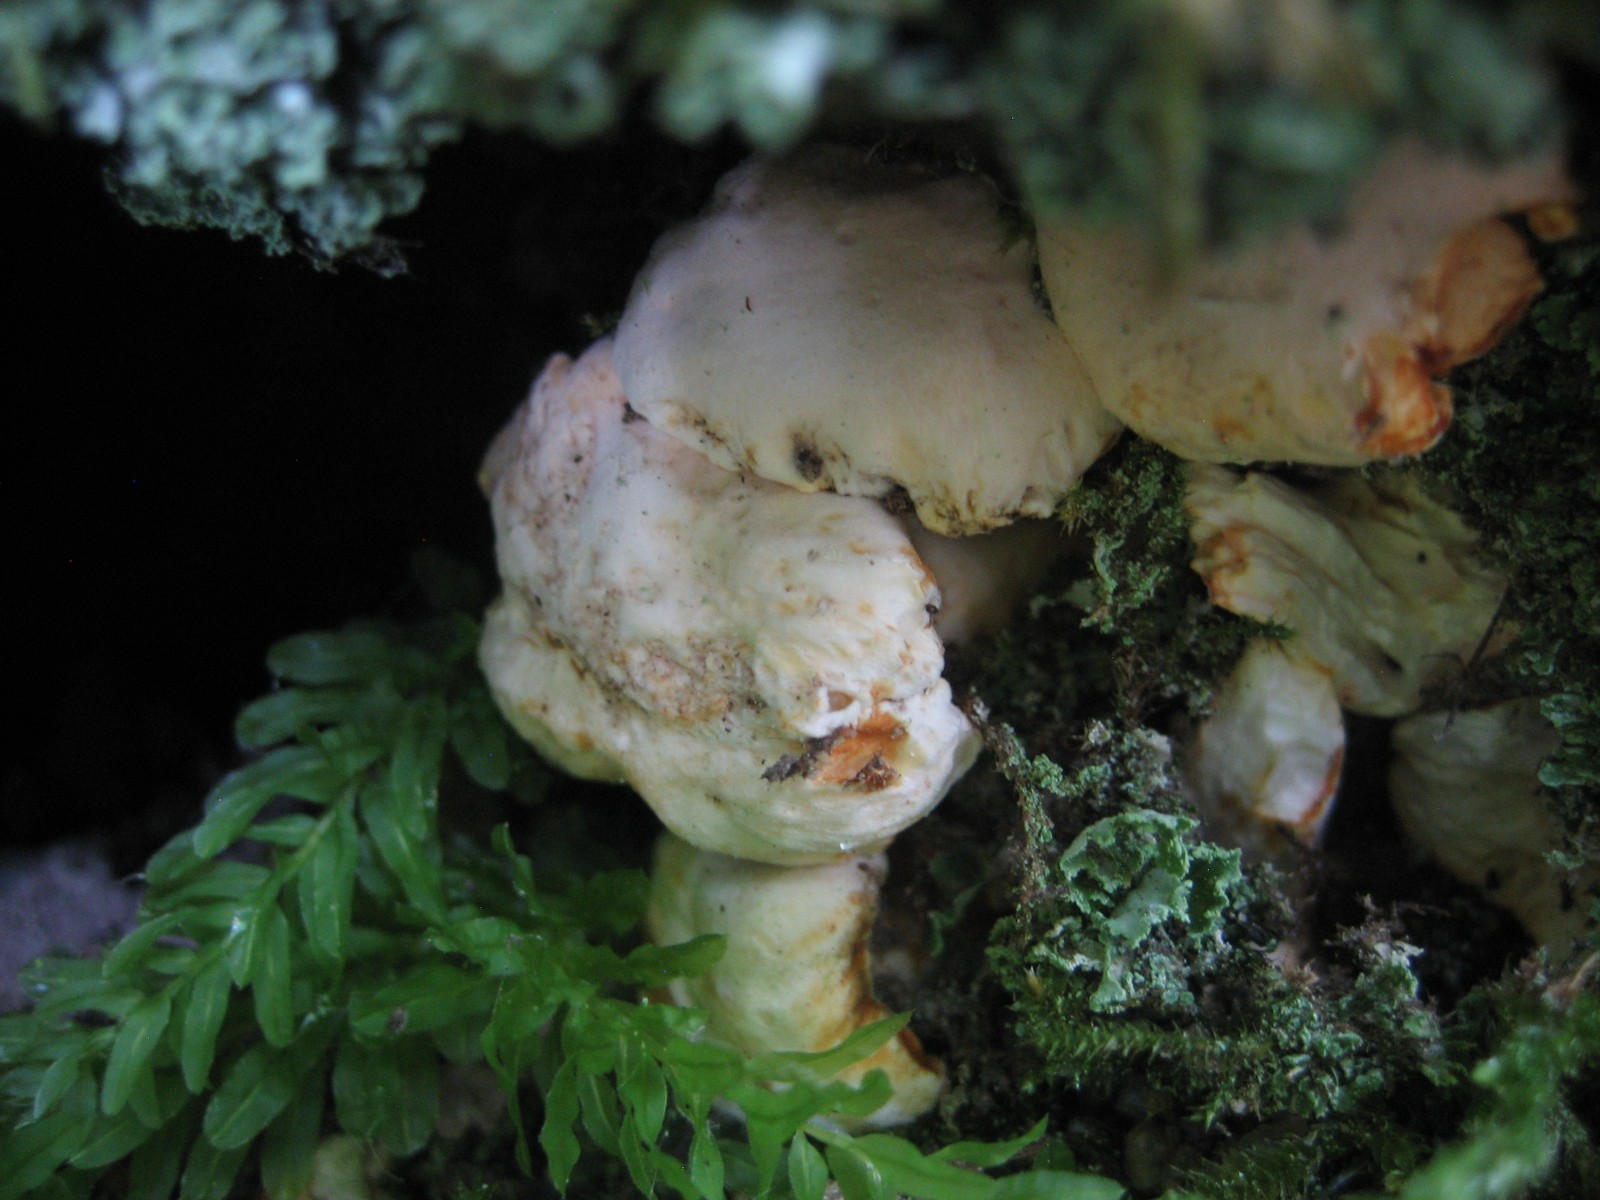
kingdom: Fungi
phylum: Basidiomycota
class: Agaricomycetes
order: Cantharellales
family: Hydnaceae
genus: Cantharellus
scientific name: Cantharellus pallens
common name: bleg kantarel
